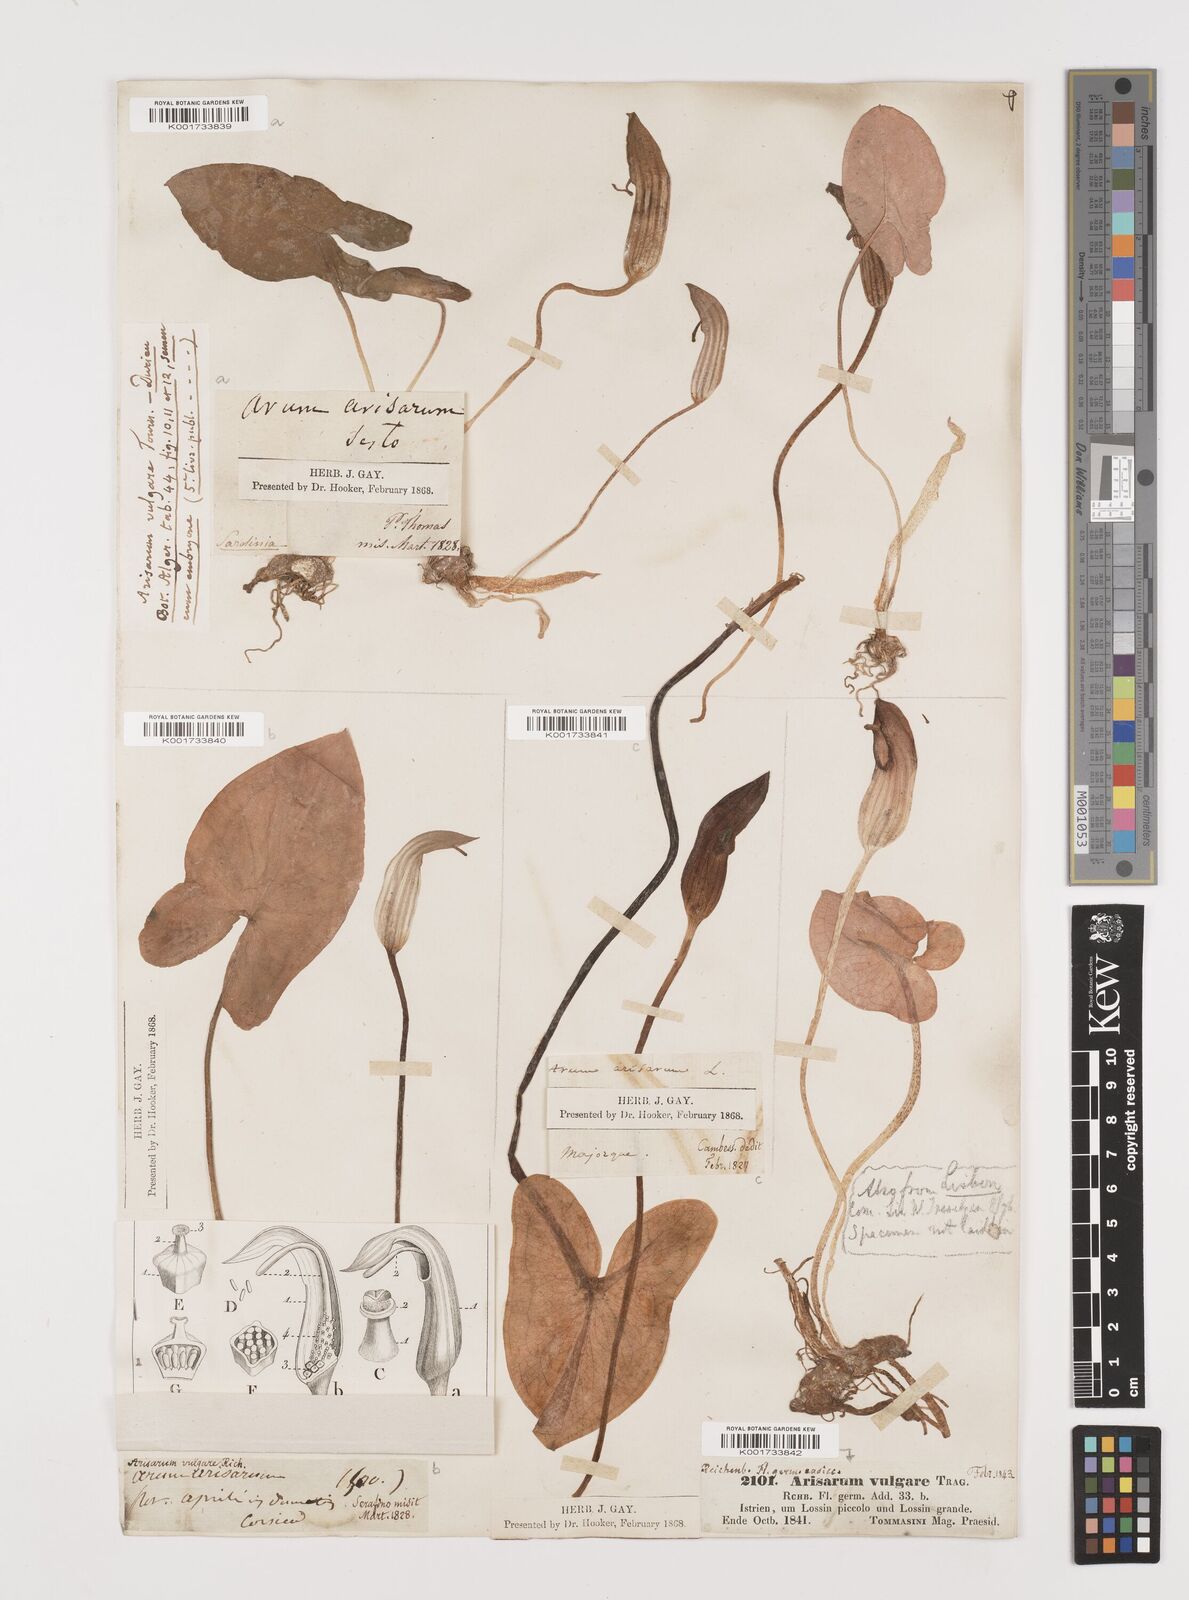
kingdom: Plantae
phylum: Tracheophyta
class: Liliopsida
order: Alismatales
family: Araceae
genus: Arisarum
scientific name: Arisarum vulgare
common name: Common arisarum
